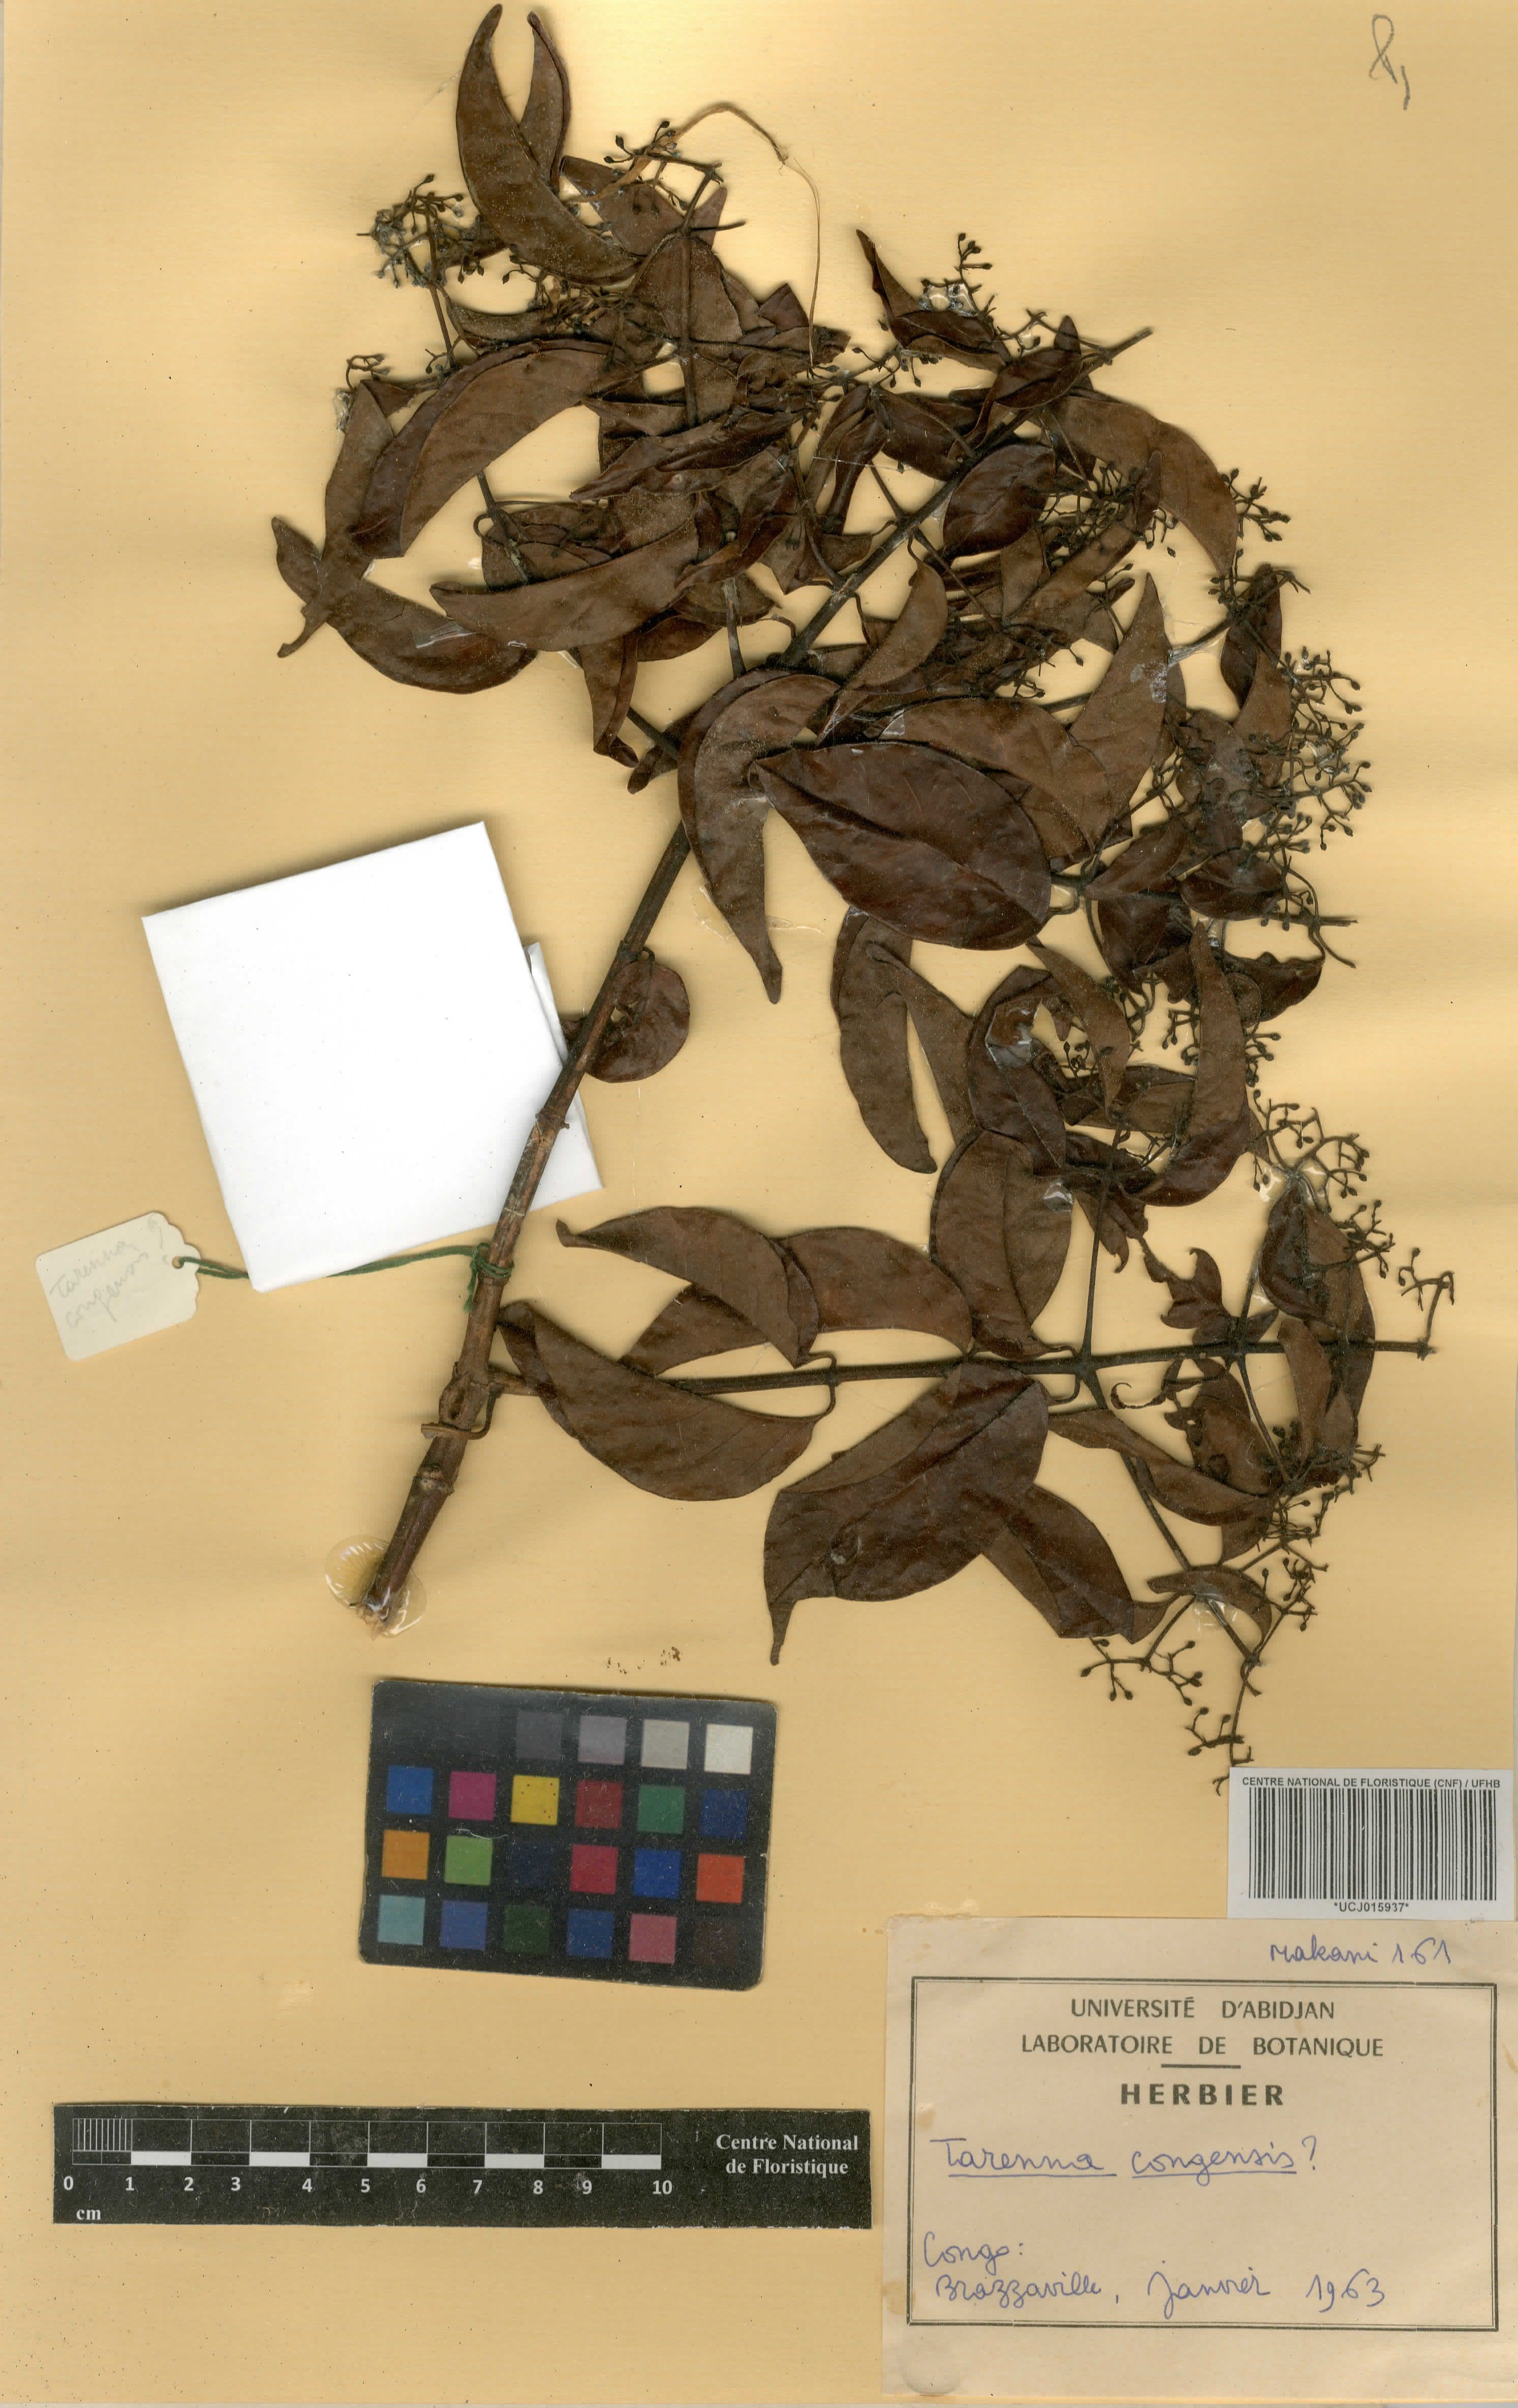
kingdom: Plantae
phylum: Tracheophyta
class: Magnoliopsida
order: Gentianales
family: Rubiaceae
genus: Tarenna
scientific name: Tarenna congensis
